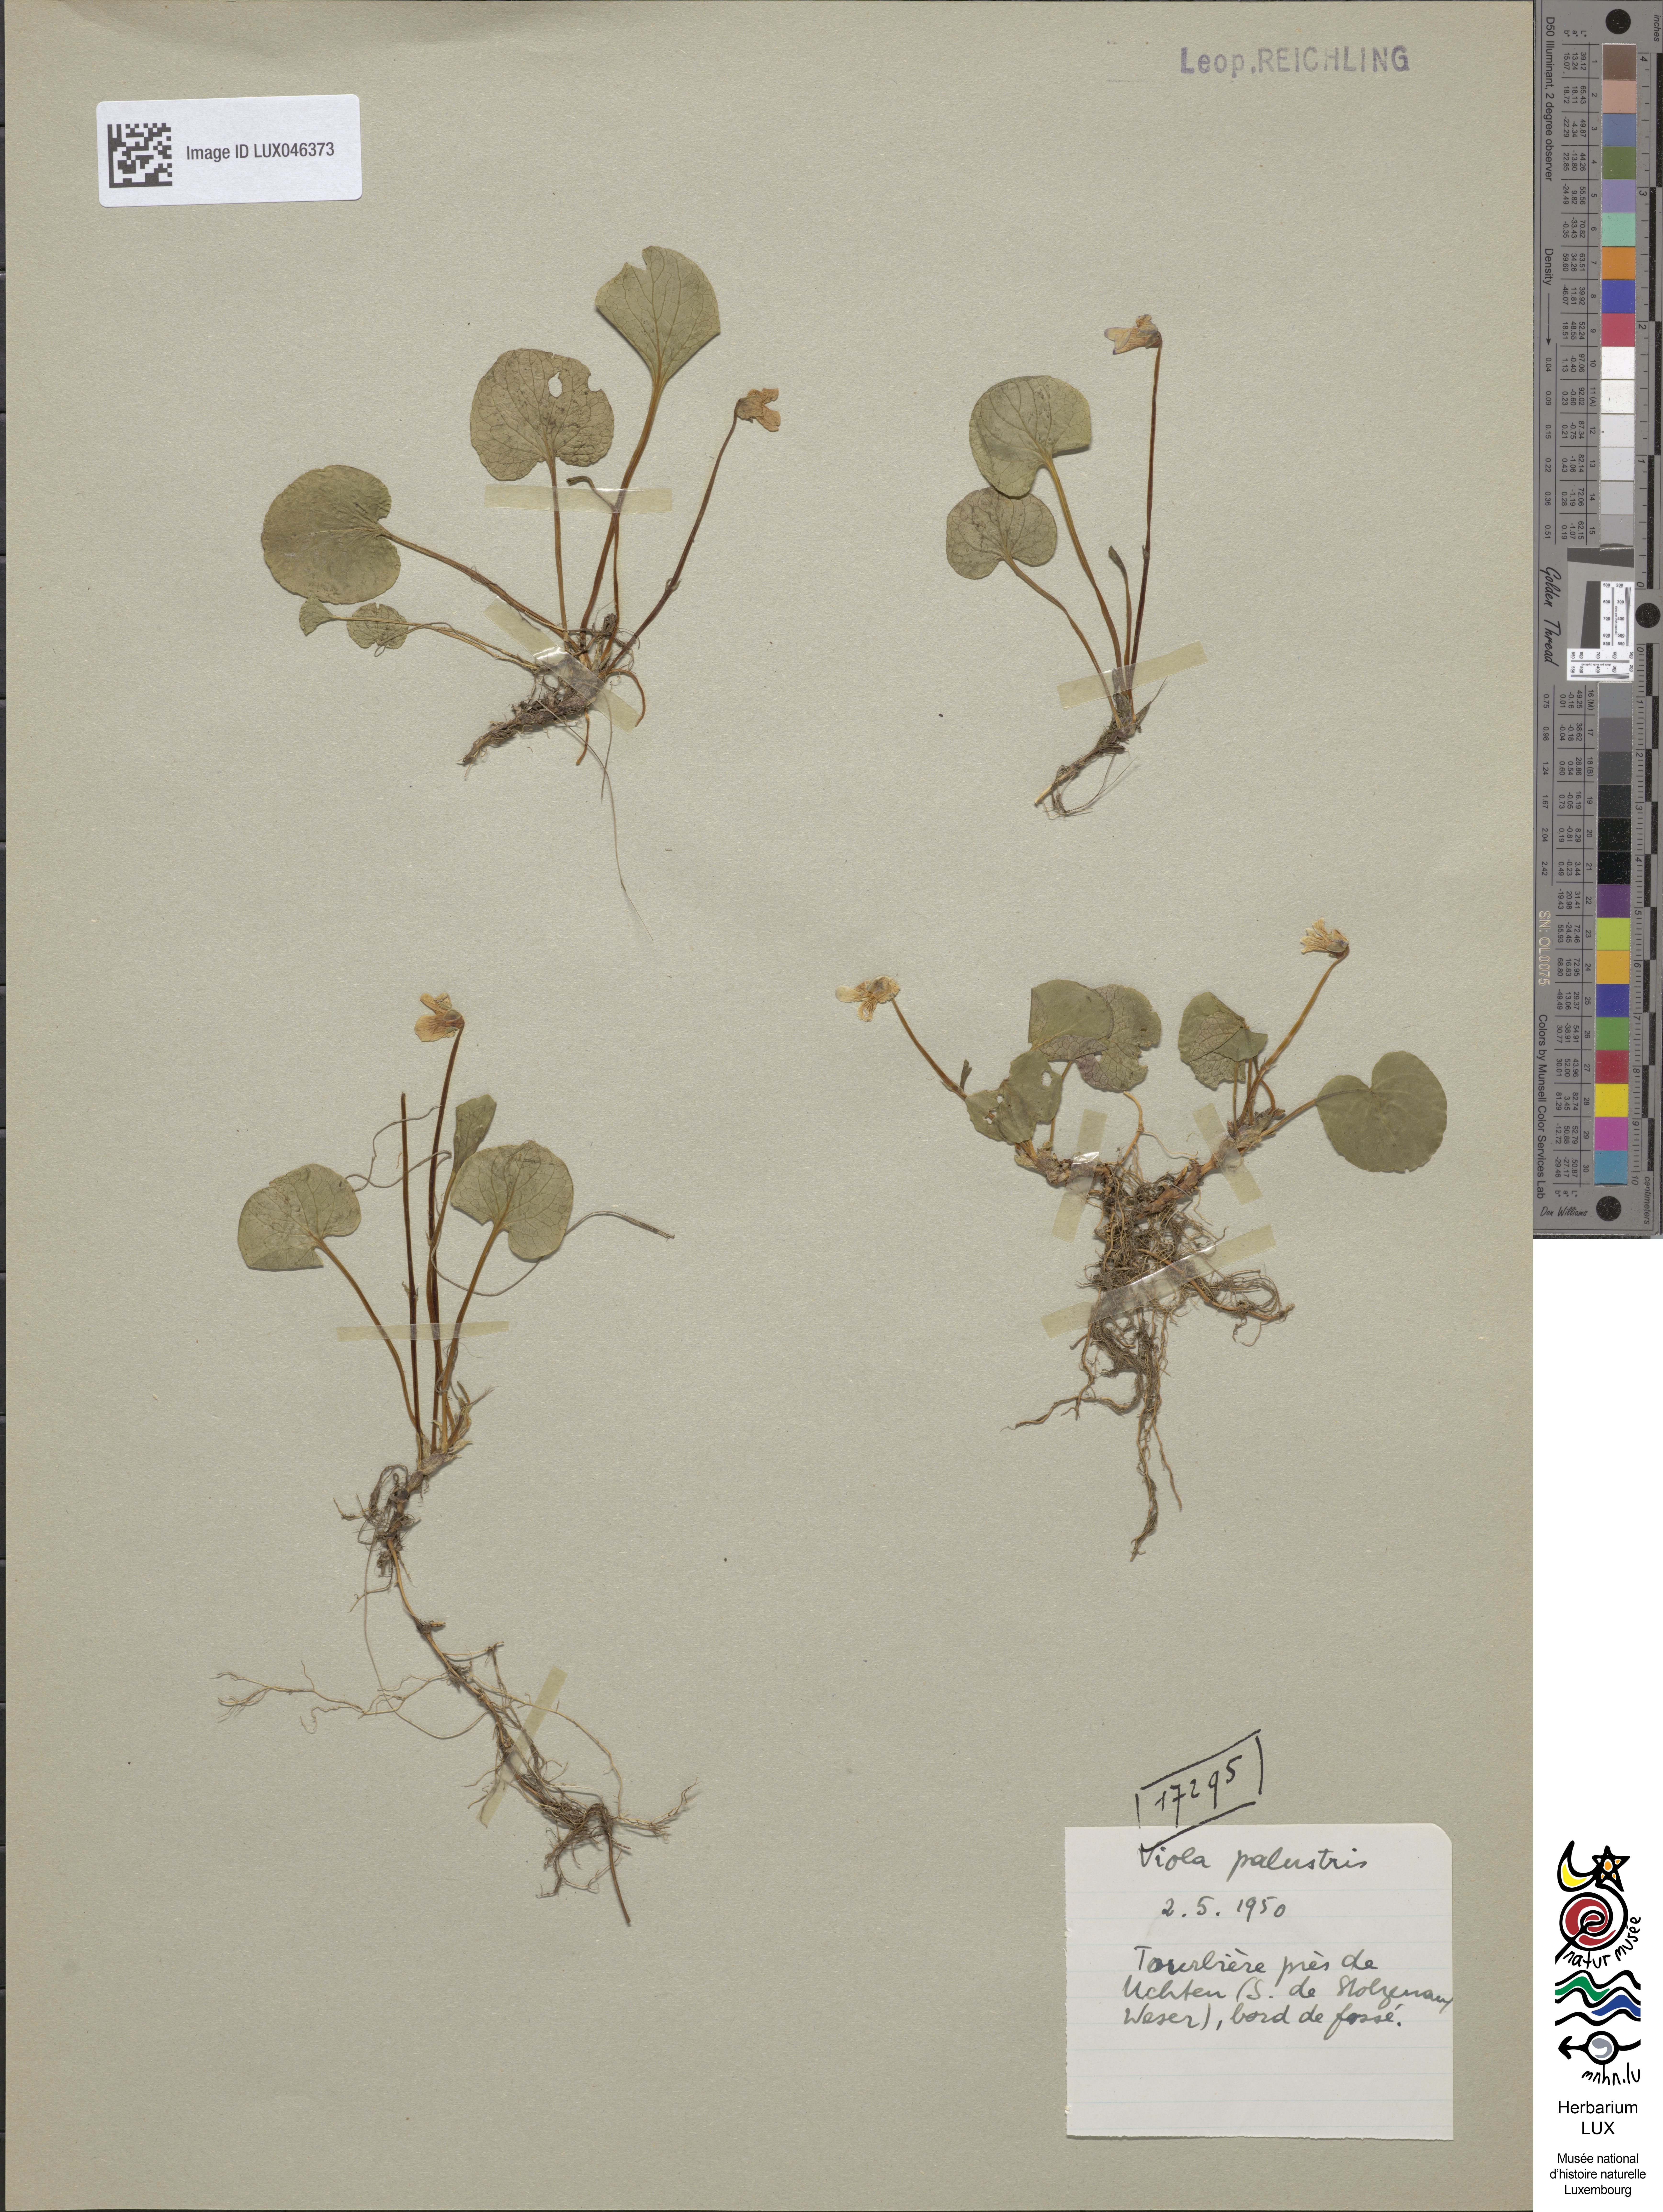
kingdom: Plantae
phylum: Tracheophyta
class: Magnoliopsida
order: Malpighiales
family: Violaceae
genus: Viola
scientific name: Viola palustris
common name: Marsh violet
